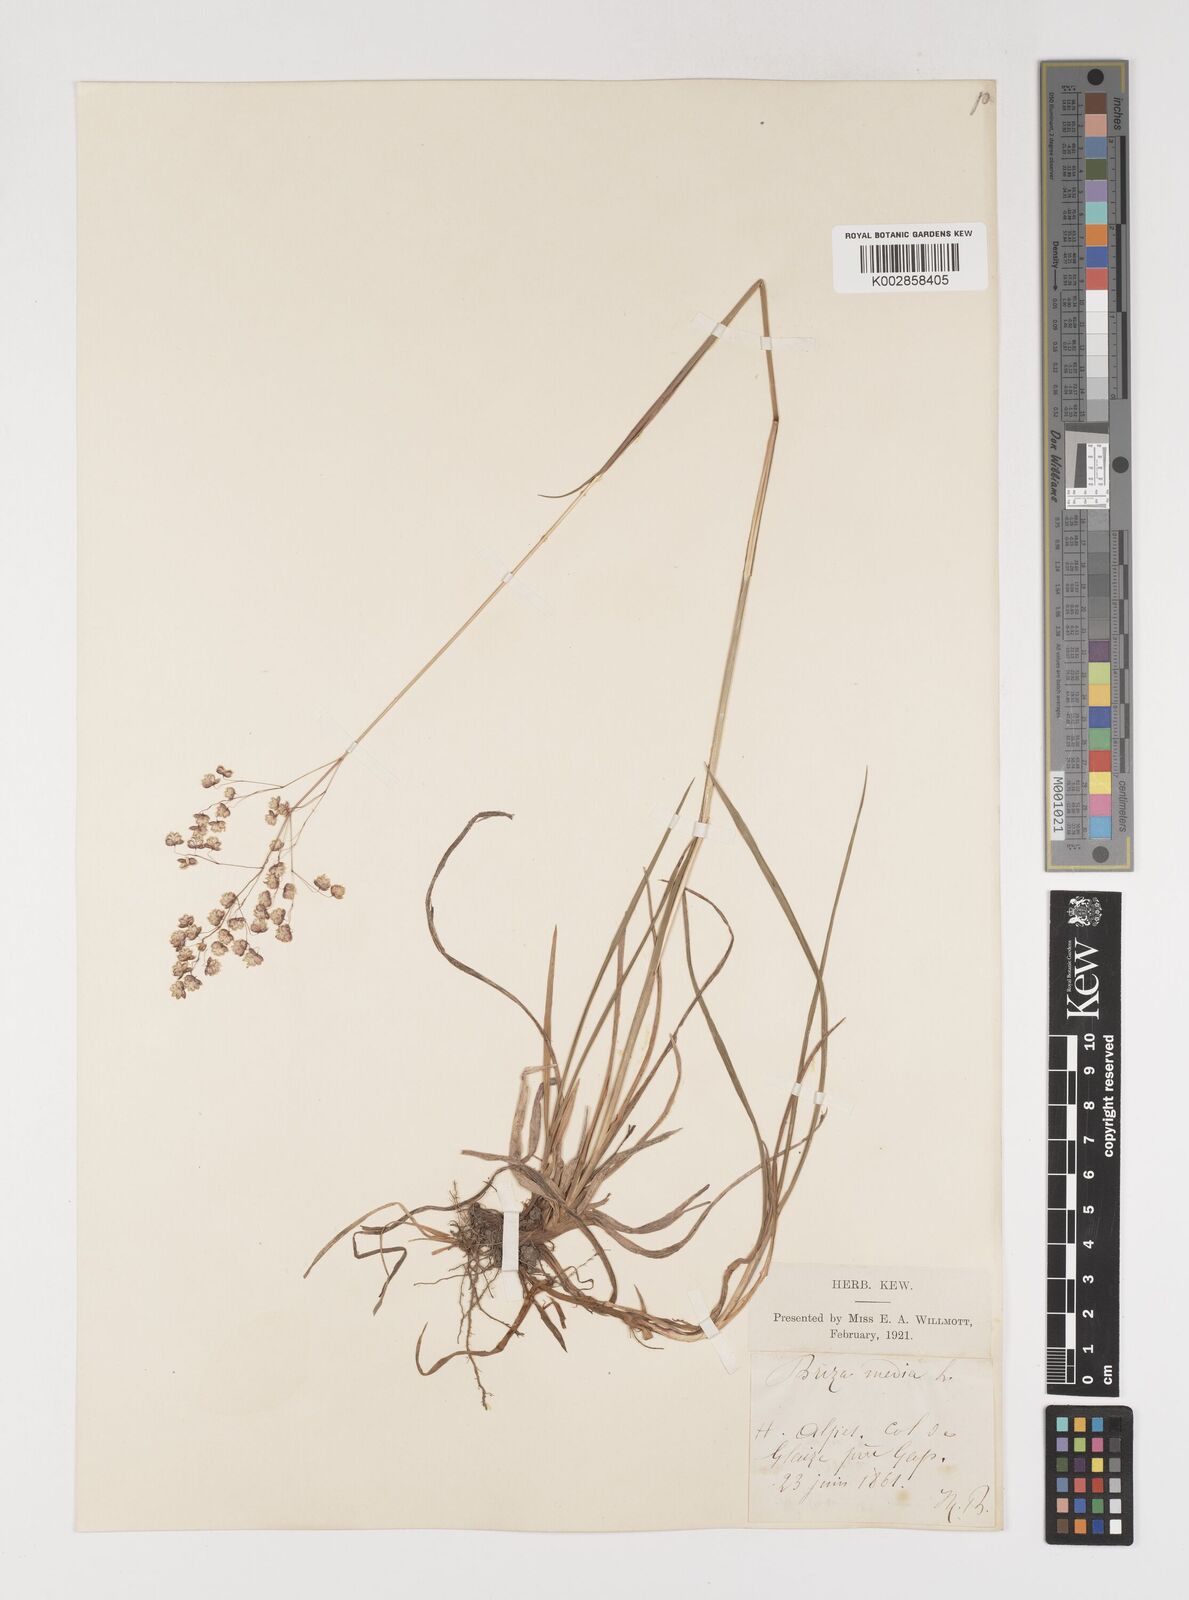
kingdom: Plantae
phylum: Tracheophyta
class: Liliopsida
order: Poales
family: Poaceae
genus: Briza
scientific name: Briza media
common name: Quaking grass
